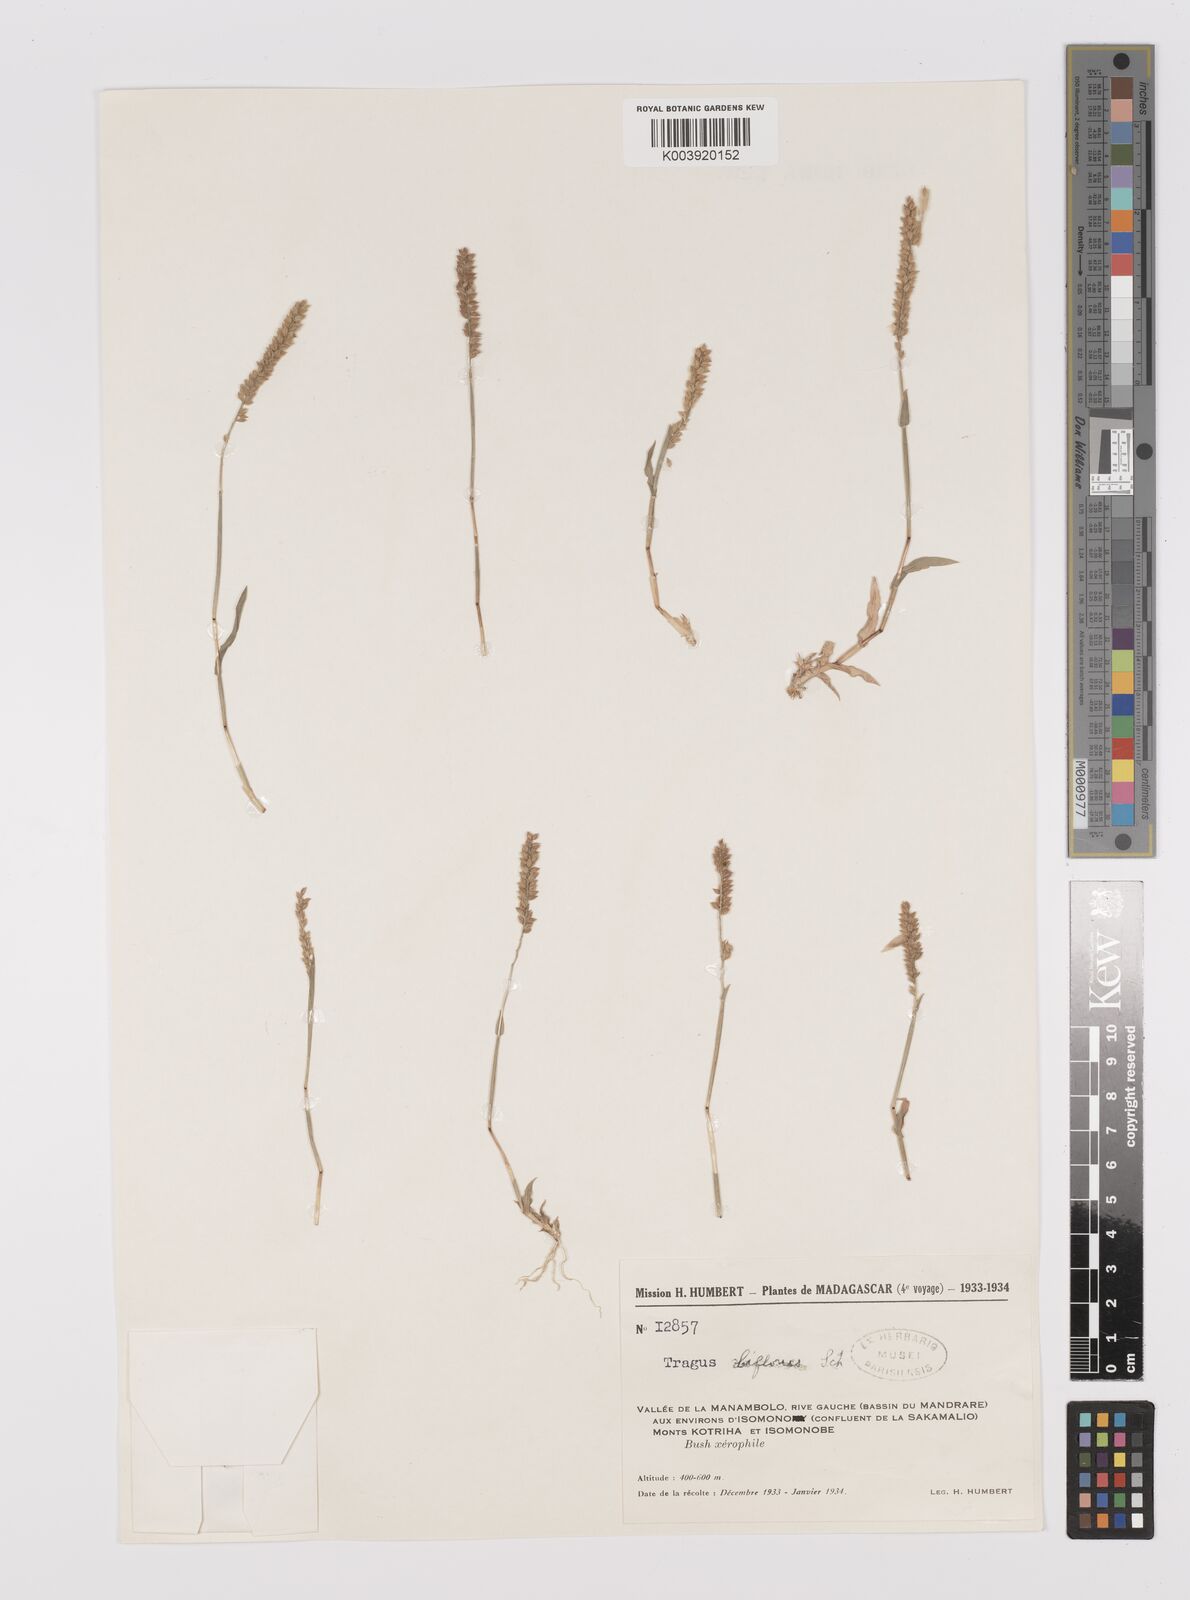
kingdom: Plantae
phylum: Tracheophyta
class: Liliopsida
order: Poales
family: Poaceae
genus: Tragus
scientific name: Tragus mongolorum
